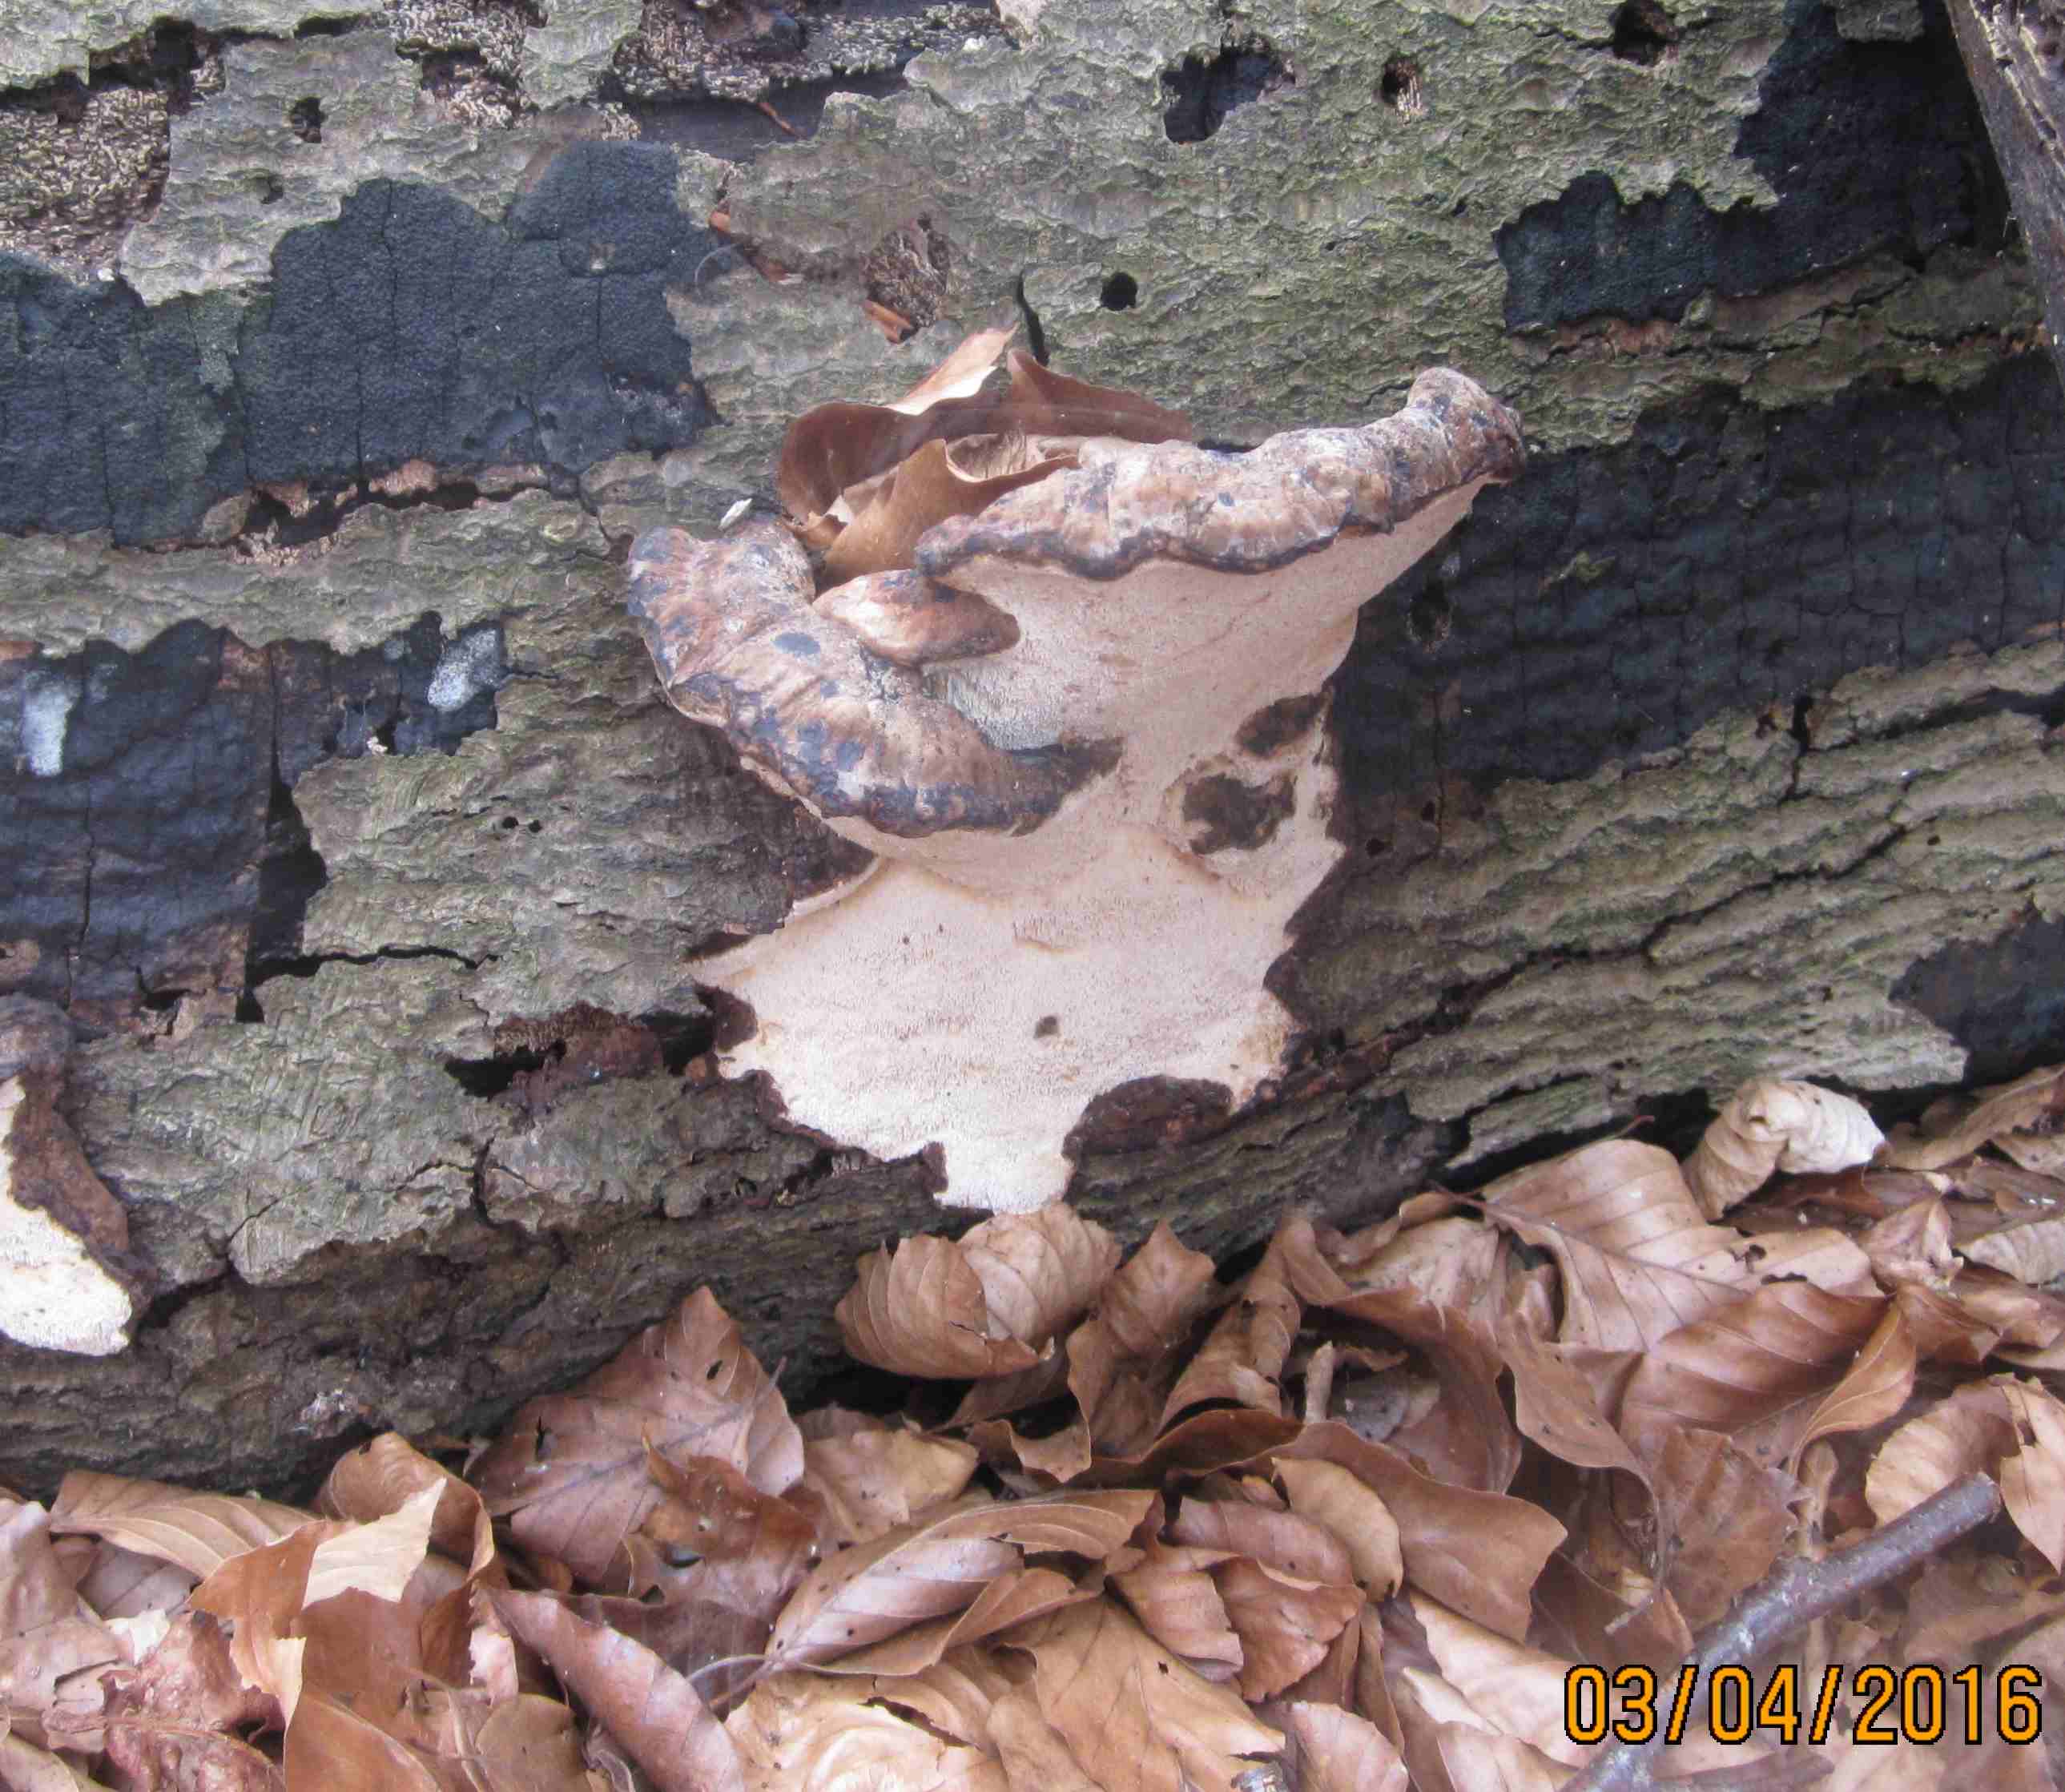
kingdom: Fungi
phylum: Basidiomycota
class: Agaricomycetes
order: Polyporales
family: Ischnodermataceae
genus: Ischnoderma
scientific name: Ischnoderma resinosum
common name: løv-tjæreporesvamp
